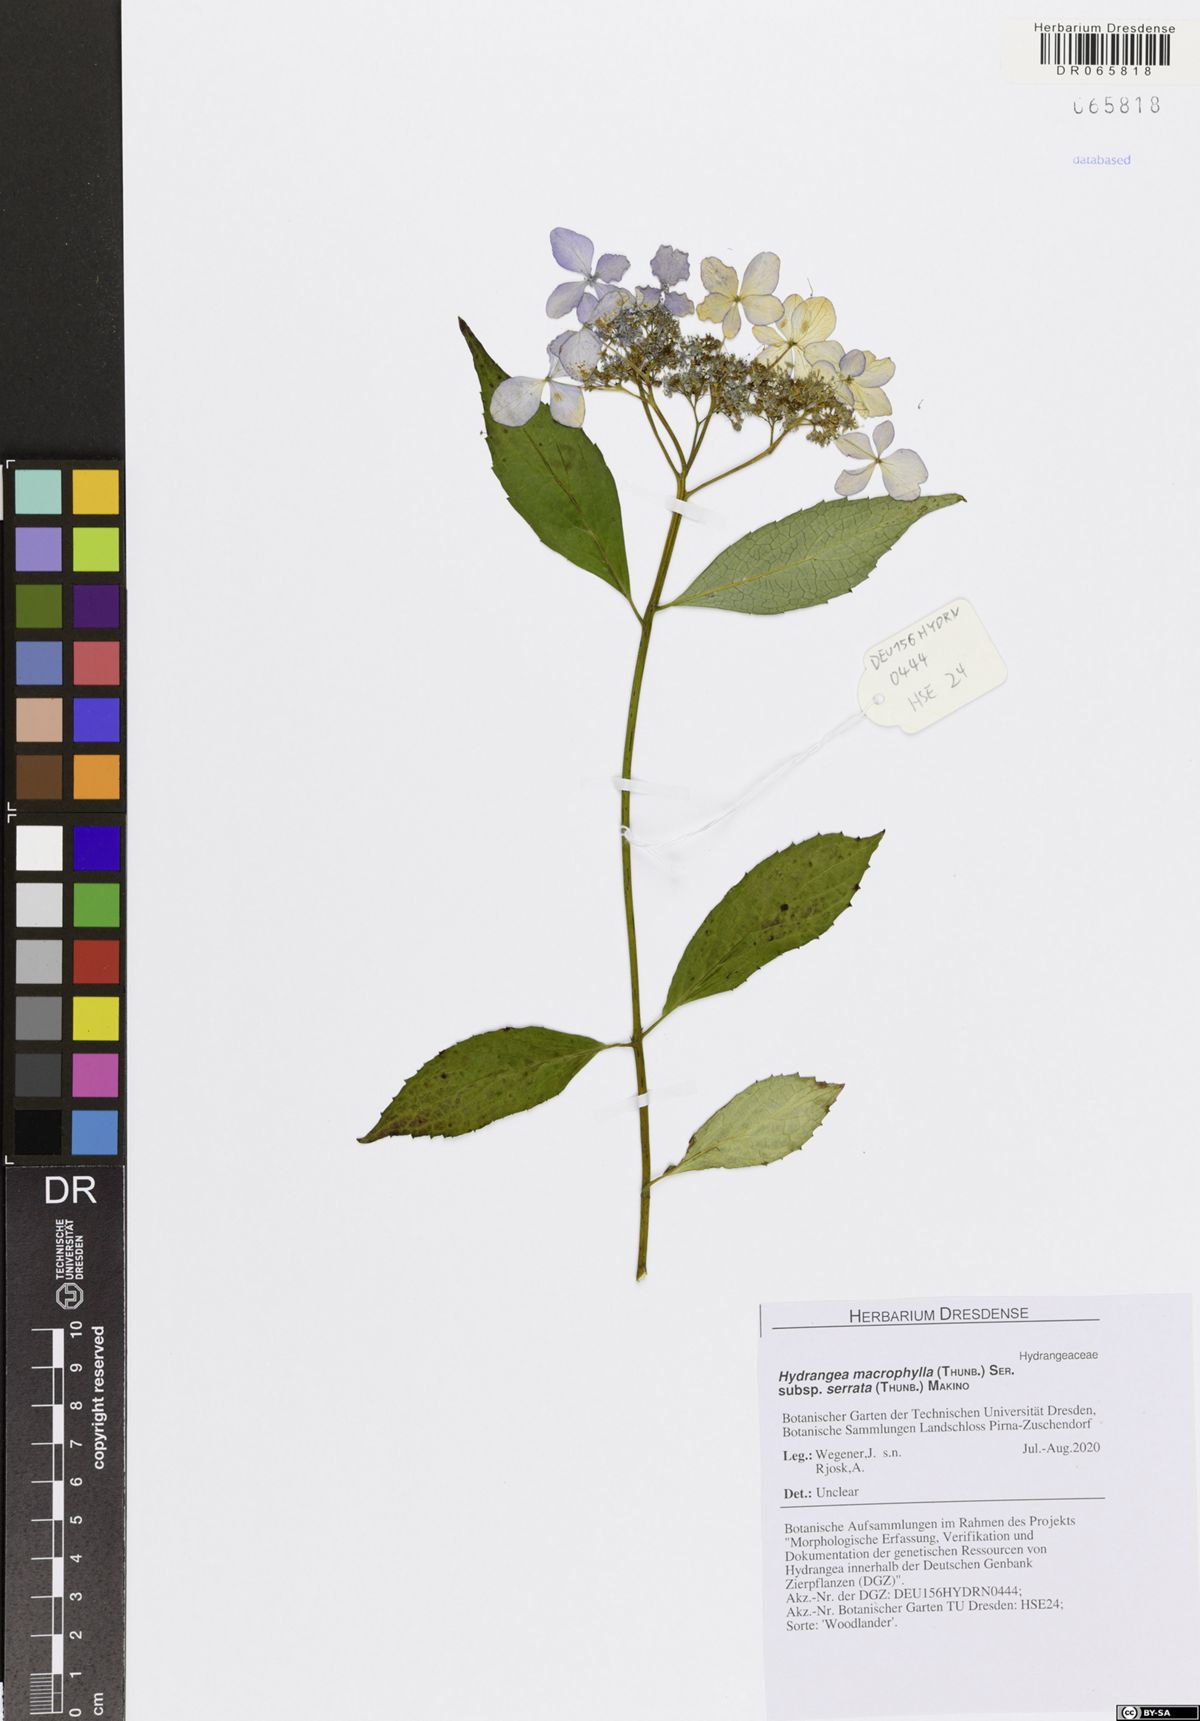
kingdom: Plantae
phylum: Tracheophyta
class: Magnoliopsida
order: Cornales
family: Hydrangeaceae
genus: Hydrangea
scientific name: Hydrangea serrata
